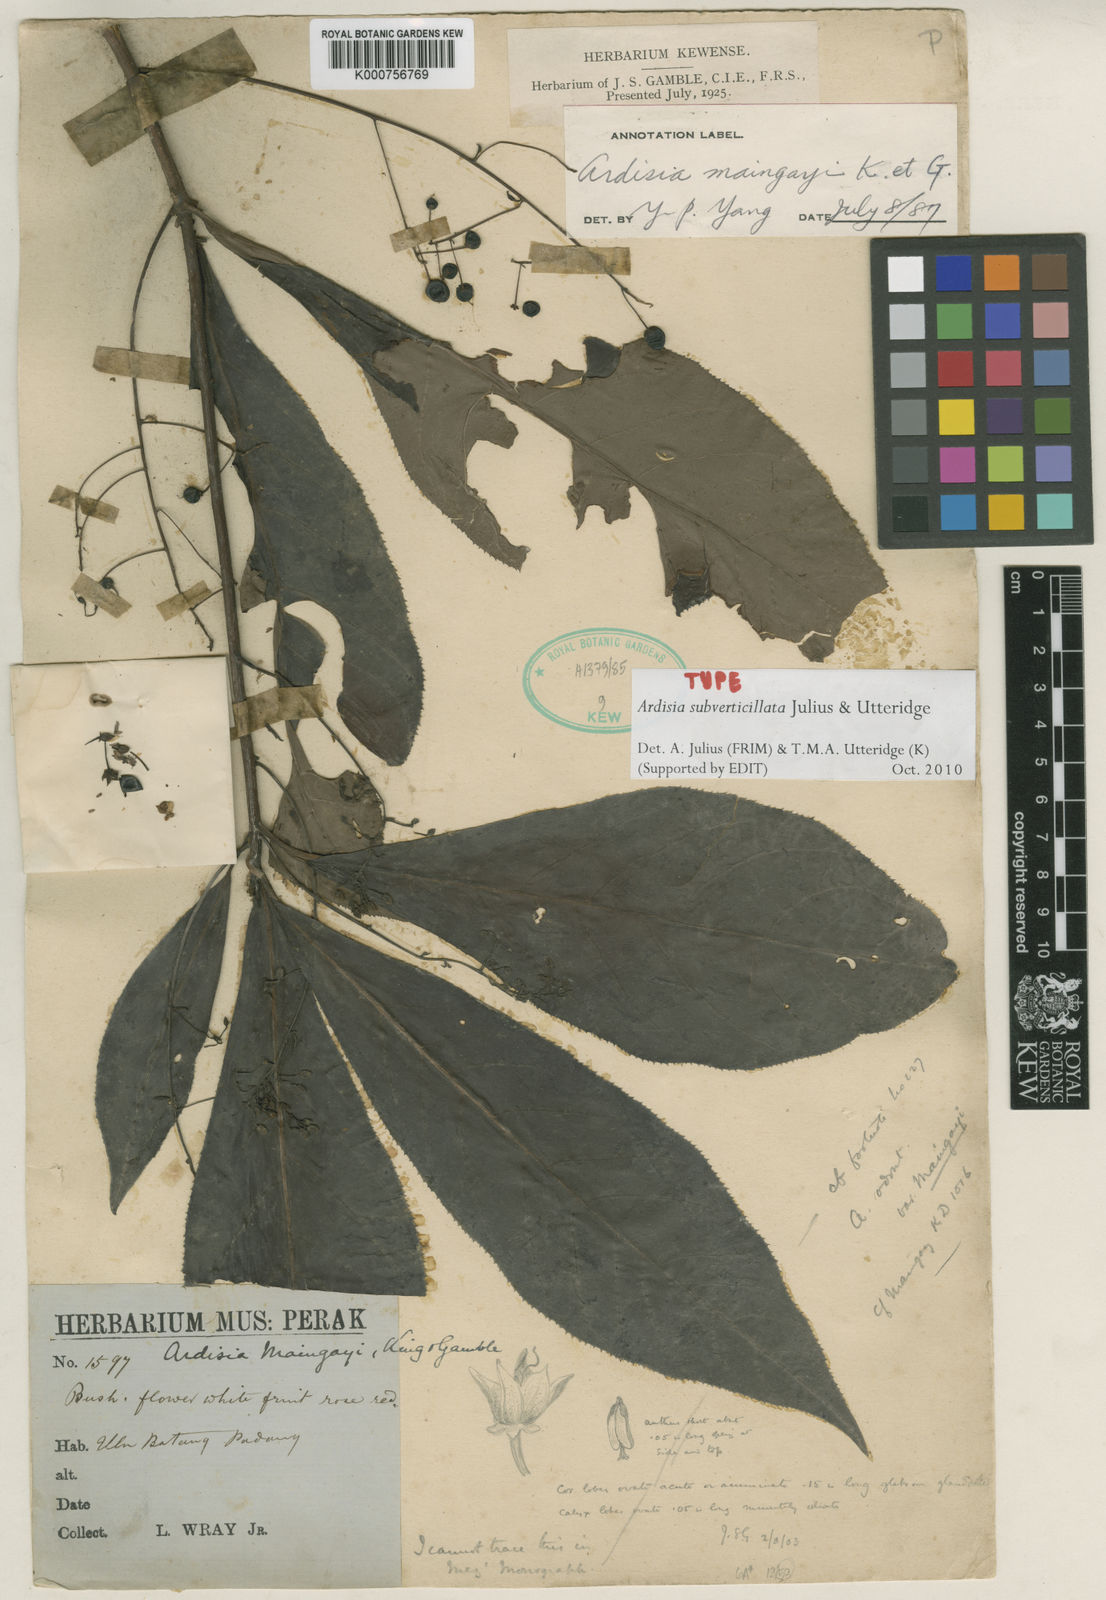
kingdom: Plantae
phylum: Tracheophyta
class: Magnoliopsida
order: Ericales
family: Primulaceae
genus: Ardisia
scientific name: Ardisia subverticillata
